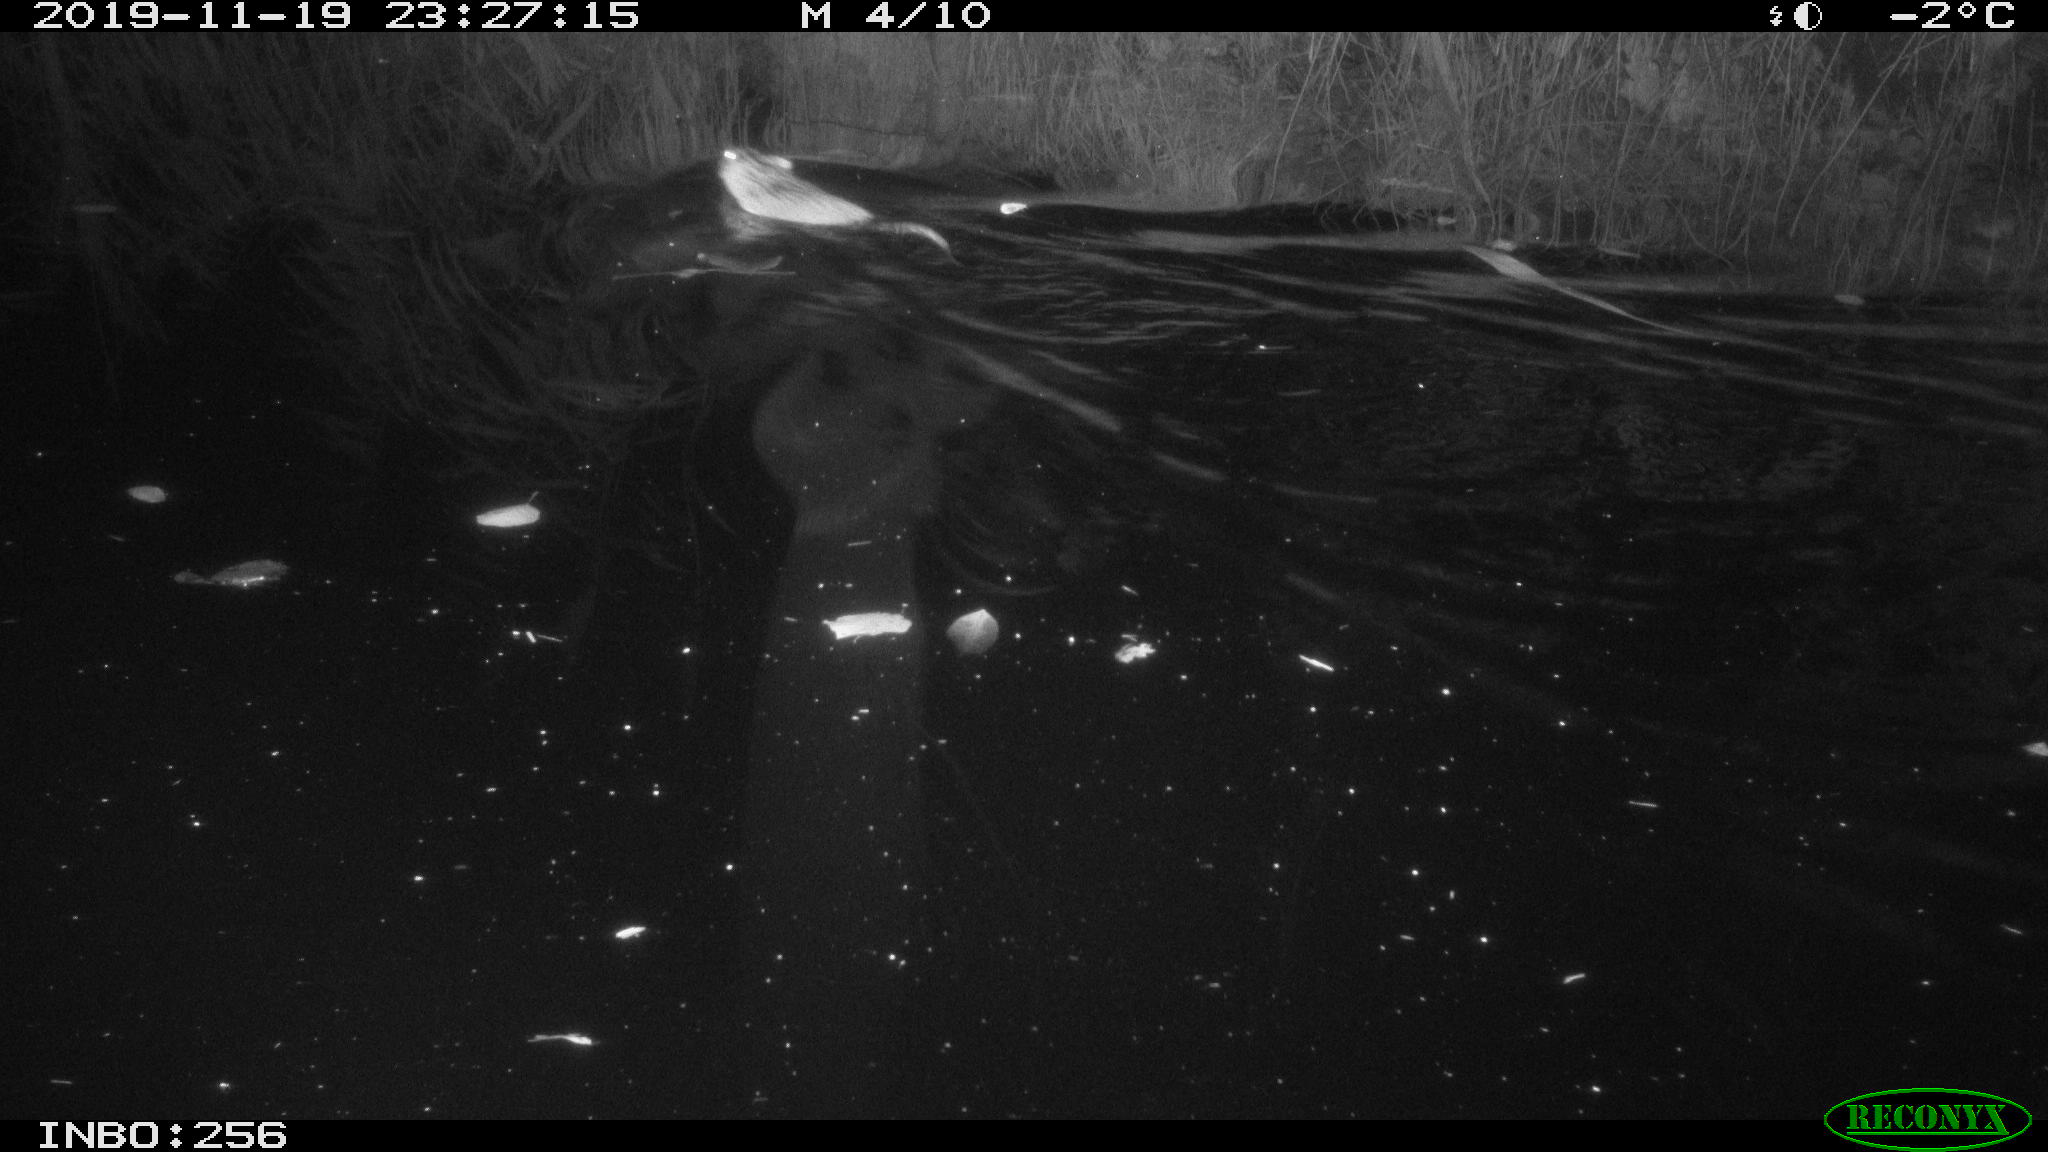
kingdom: Animalia
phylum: Chordata
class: Mammalia
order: Rodentia
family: Cricetidae
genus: Ondatra
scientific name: Ondatra zibethicus
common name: Muskrat
